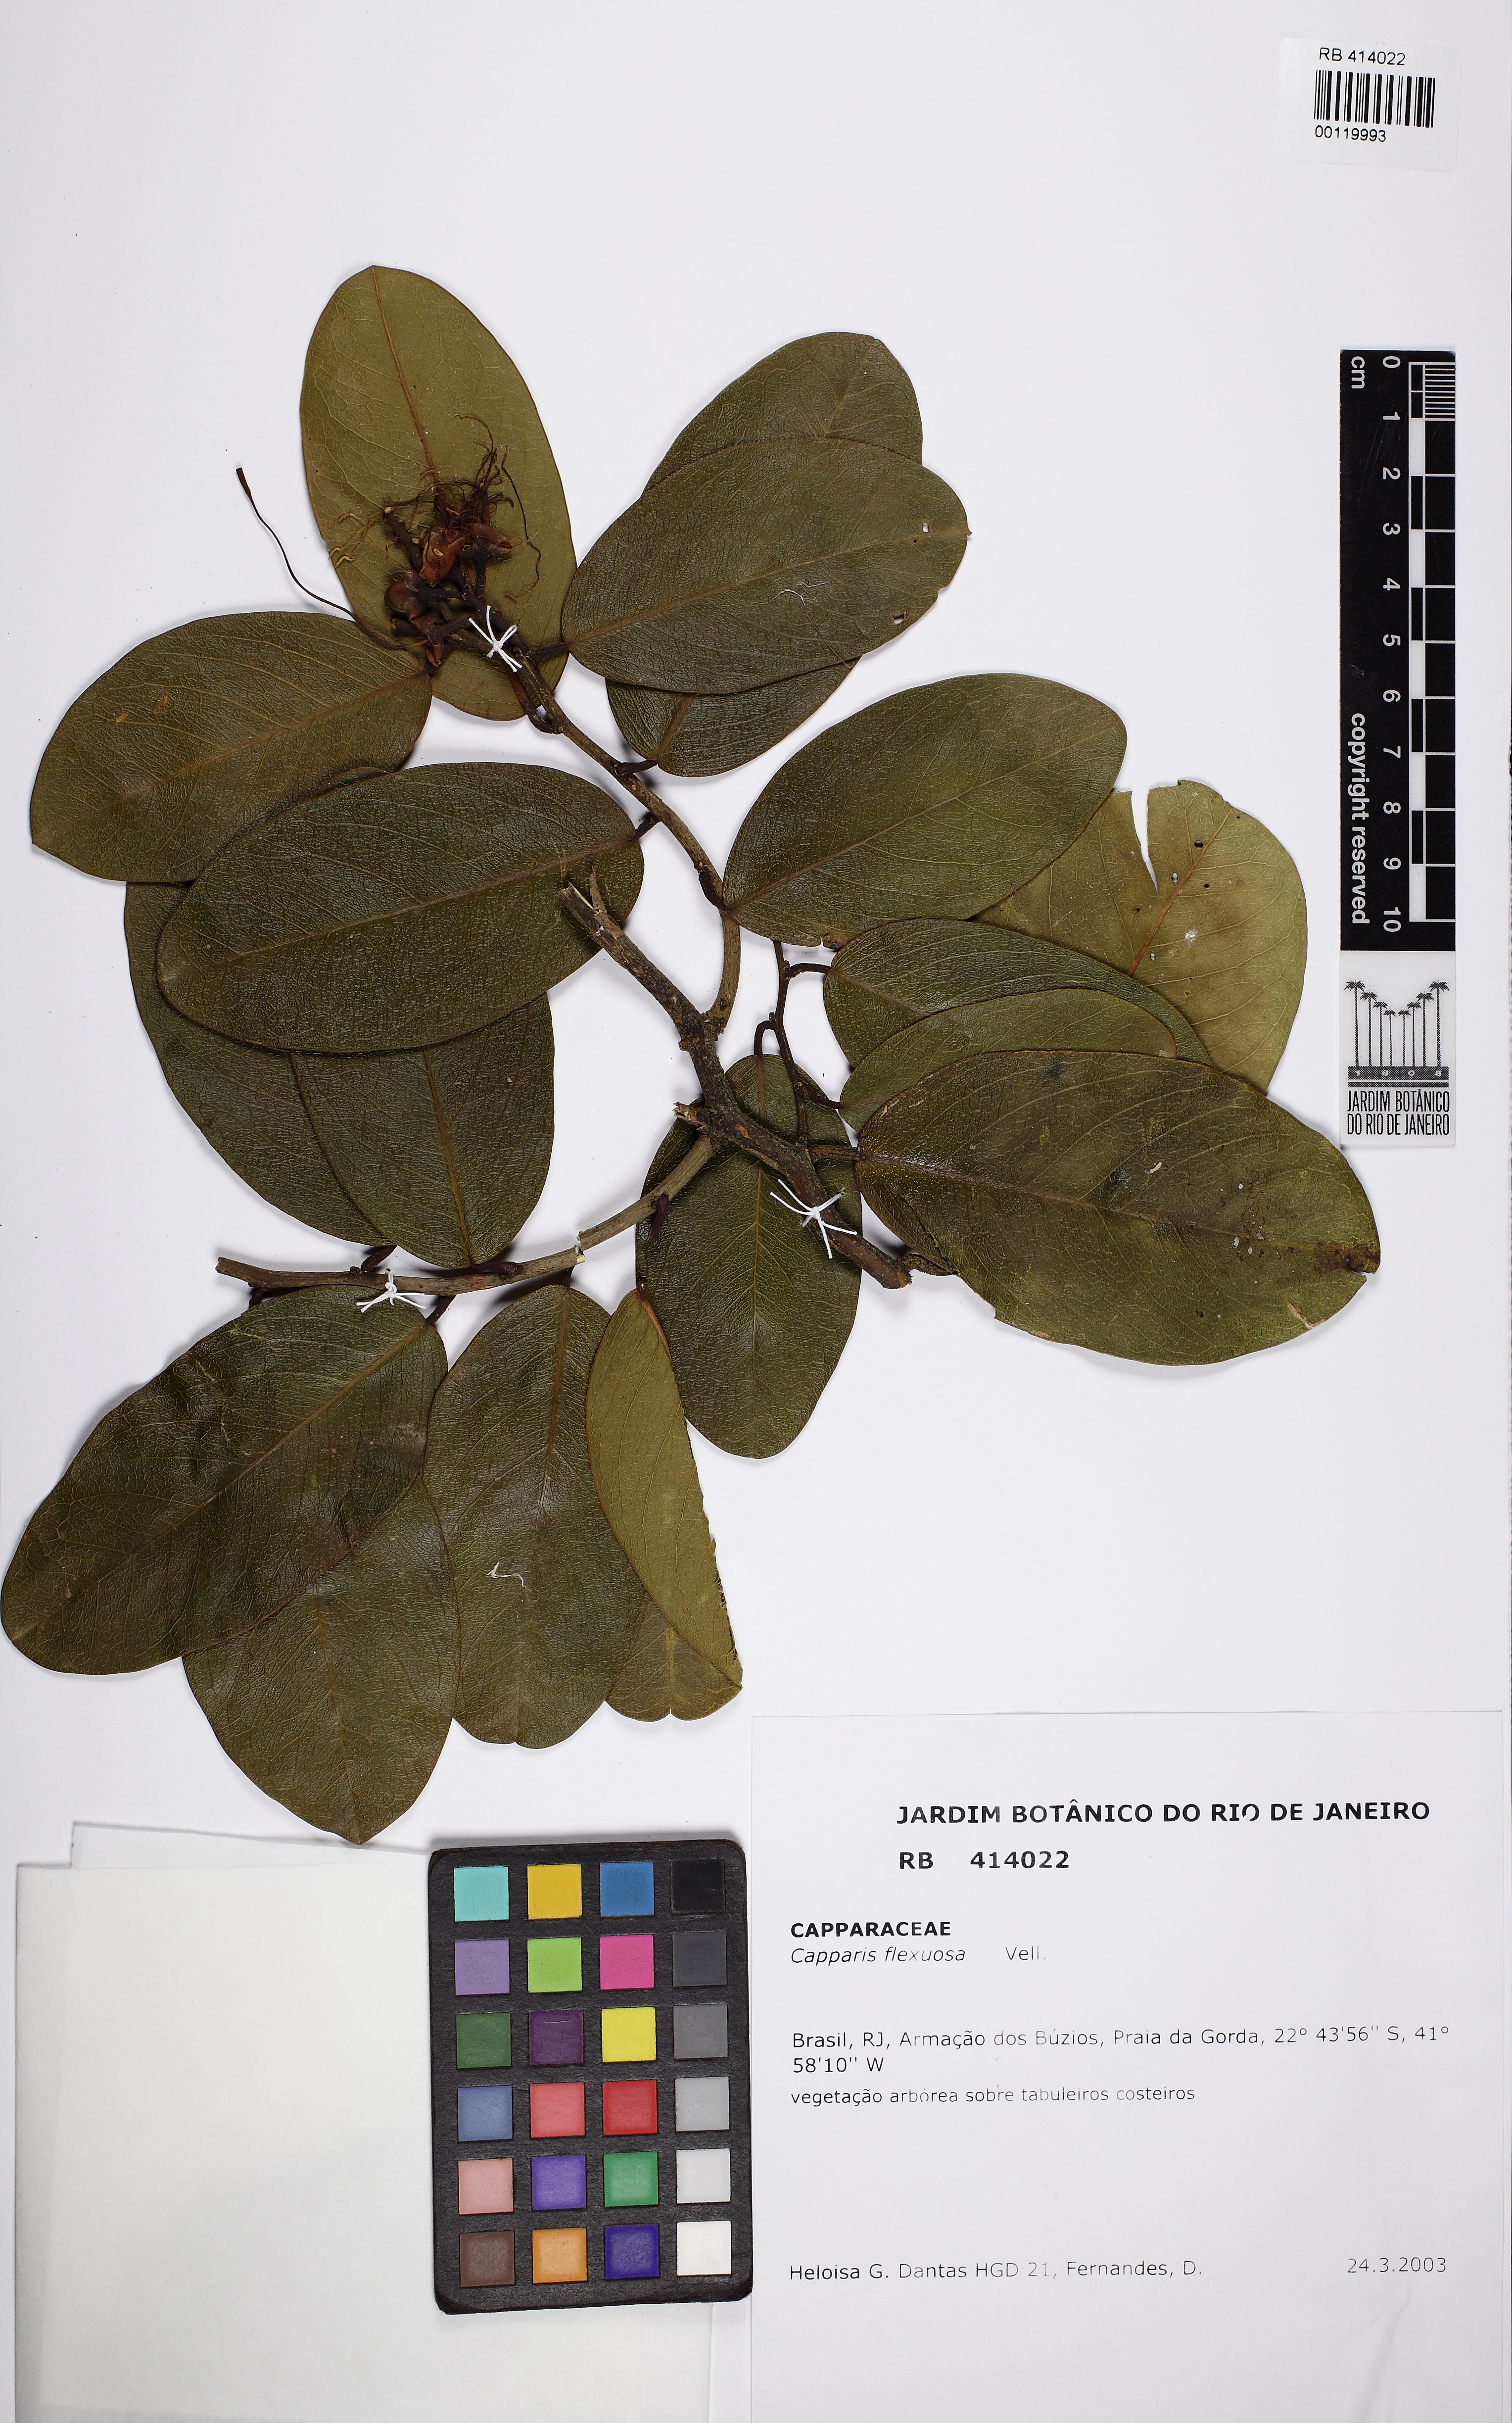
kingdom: Plantae
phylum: Tracheophyta
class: Magnoliopsida
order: Brassicales
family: Capparaceae
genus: Cynophalla
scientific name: Cynophalla flexuosa
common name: Capertree
